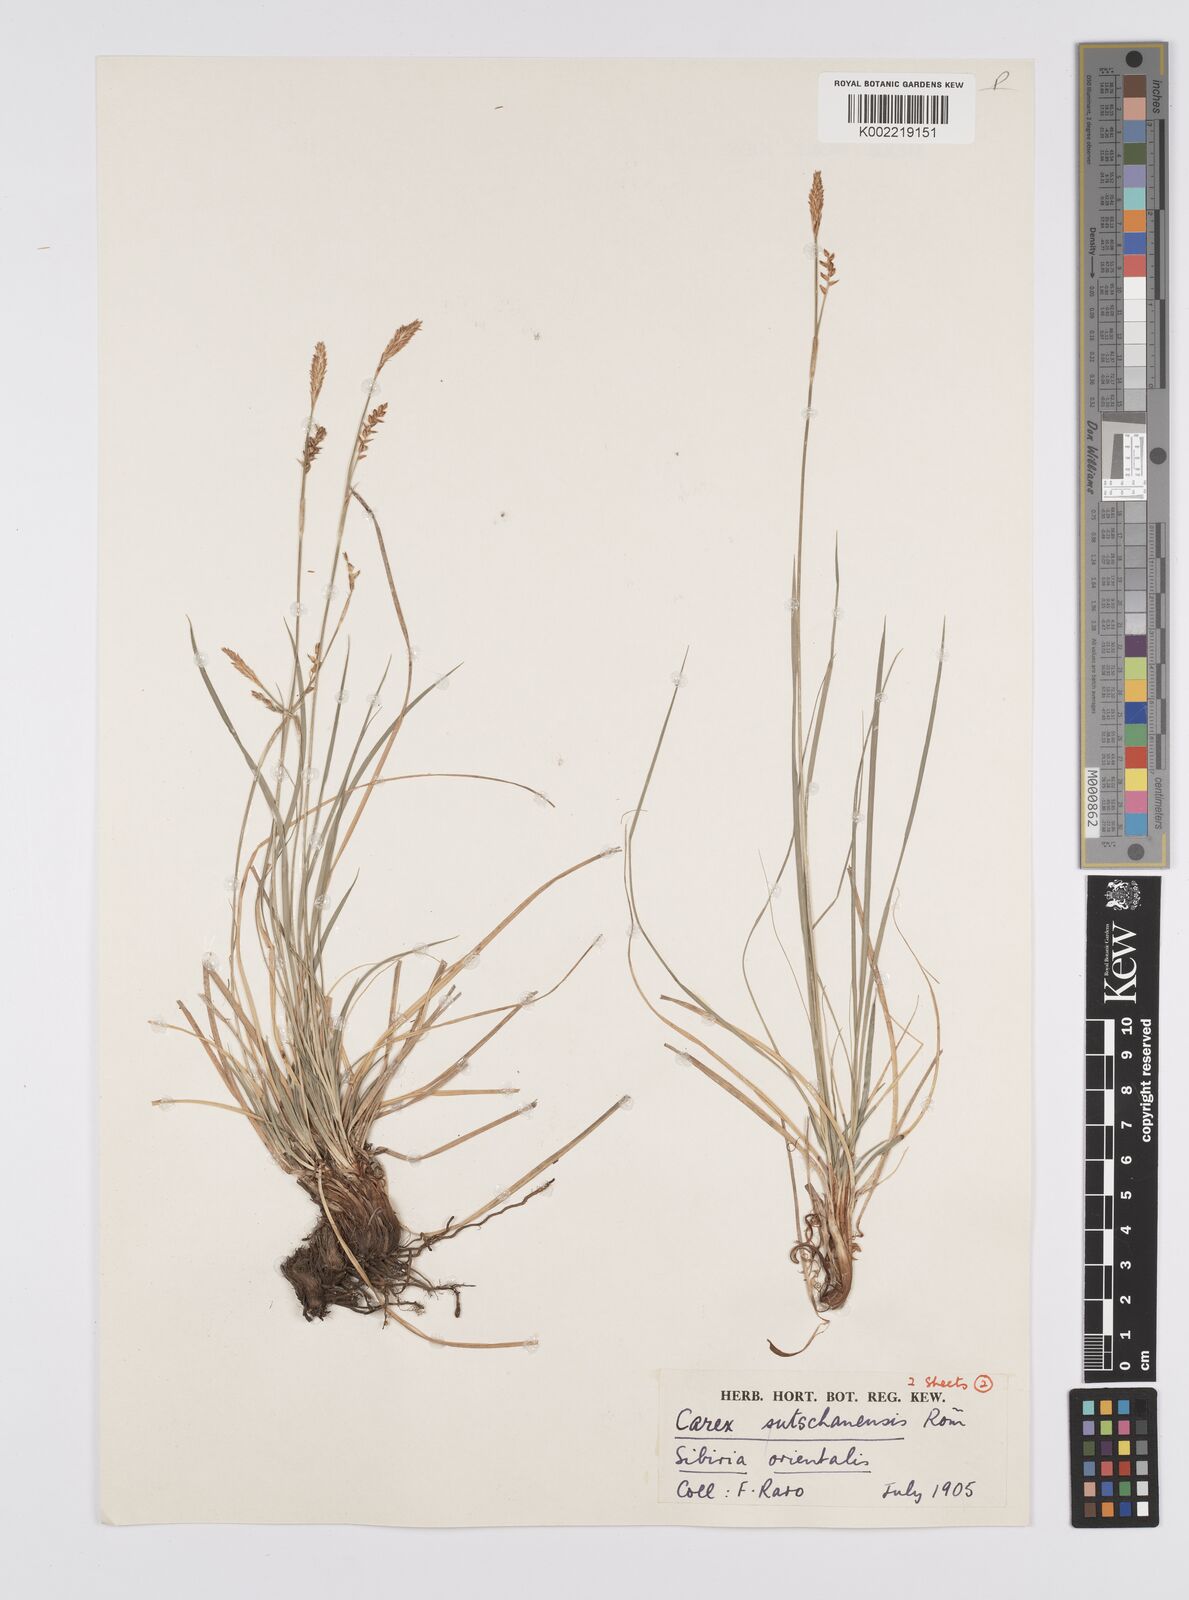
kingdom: Plantae
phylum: Tracheophyta
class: Liliopsida
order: Poales
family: Cyperaceae
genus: Carex
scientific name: Carex pediformis
